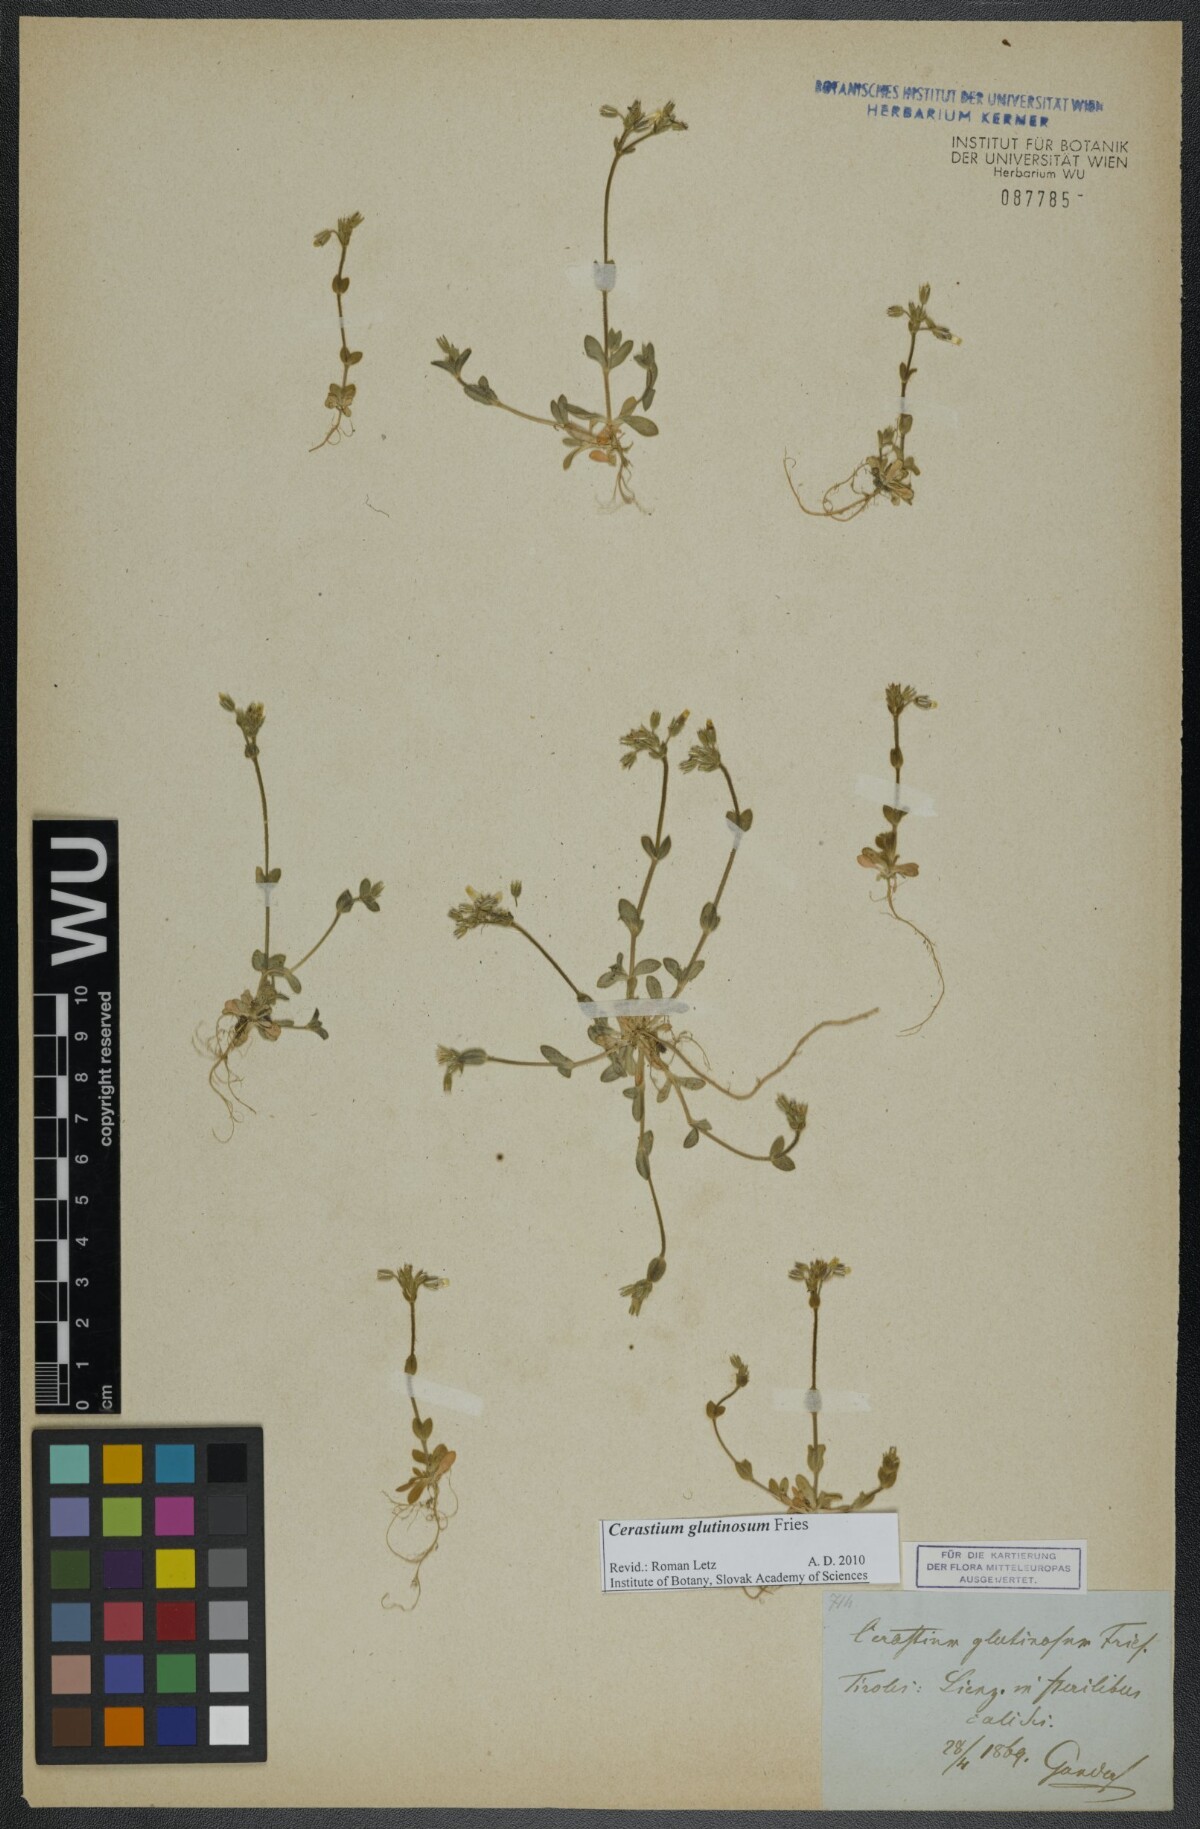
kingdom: Plantae
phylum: Tracheophyta
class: Magnoliopsida
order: Caryophyllales
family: Caryophyllaceae
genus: Cerastium
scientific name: Cerastium glutinosum
